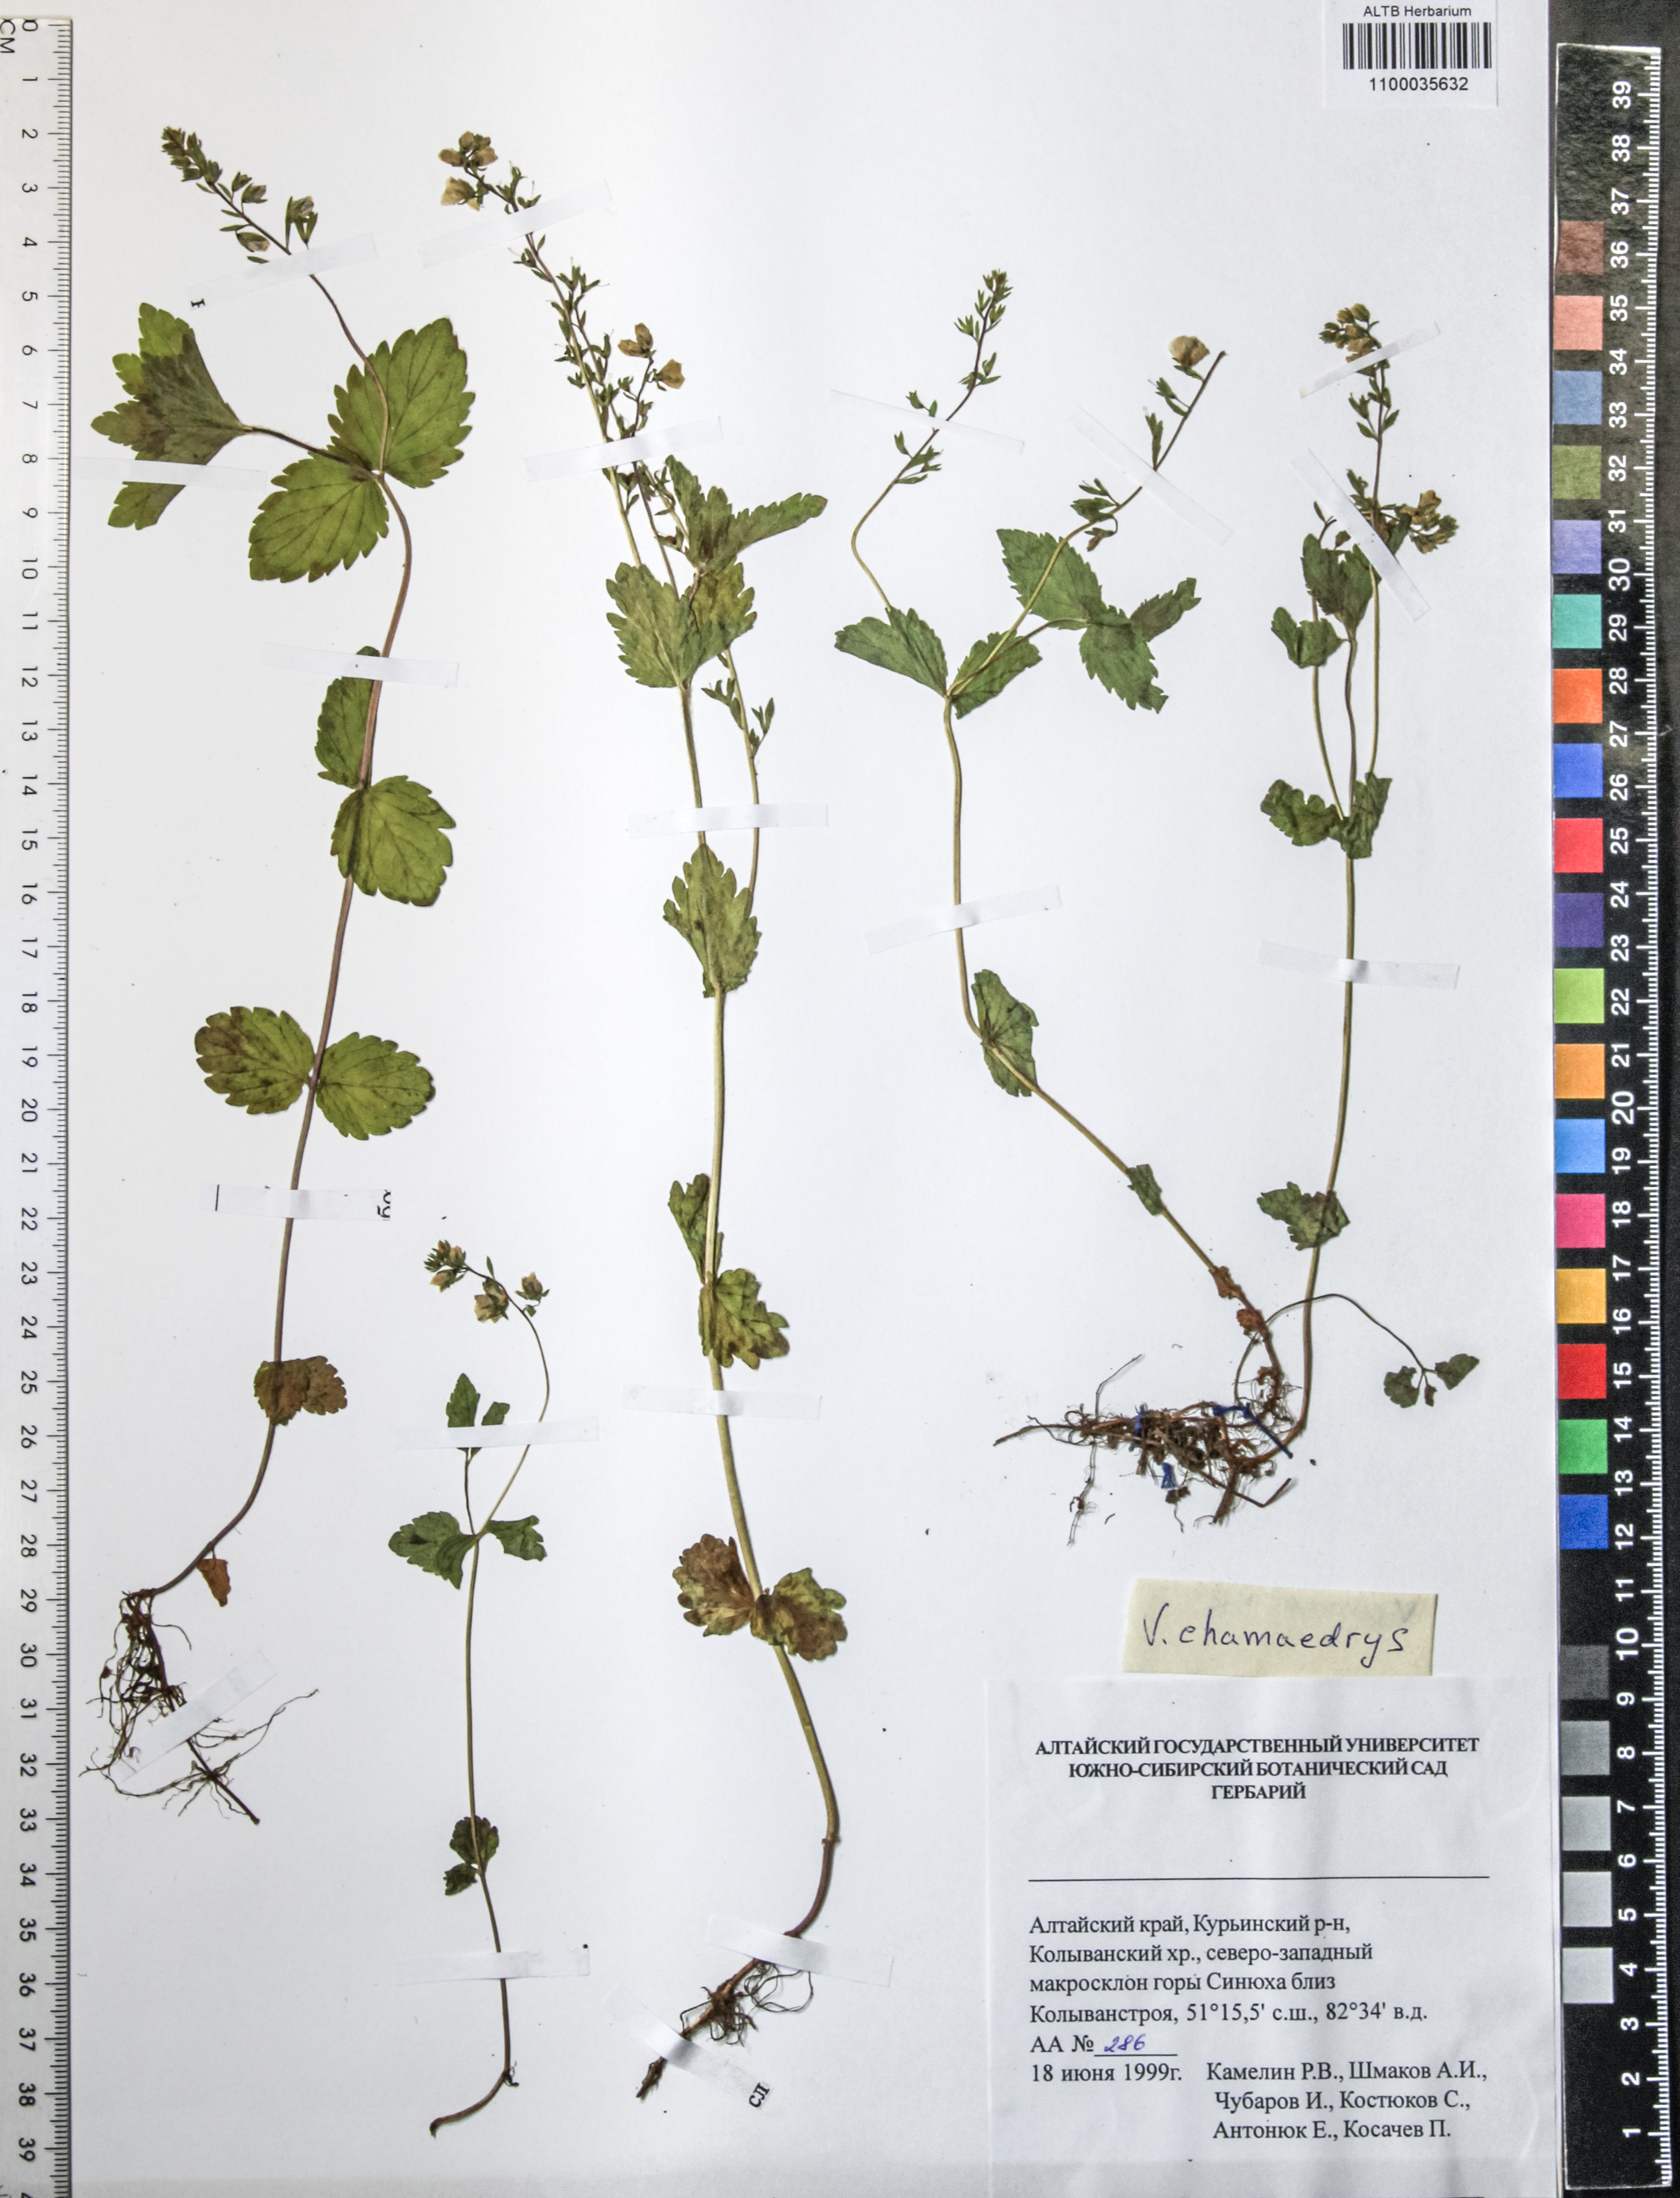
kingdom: Plantae
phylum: Tracheophyta
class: Magnoliopsida
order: Lamiales
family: Plantaginaceae
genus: Veronica
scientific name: Veronica chamaedrys
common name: Germander speedwell
